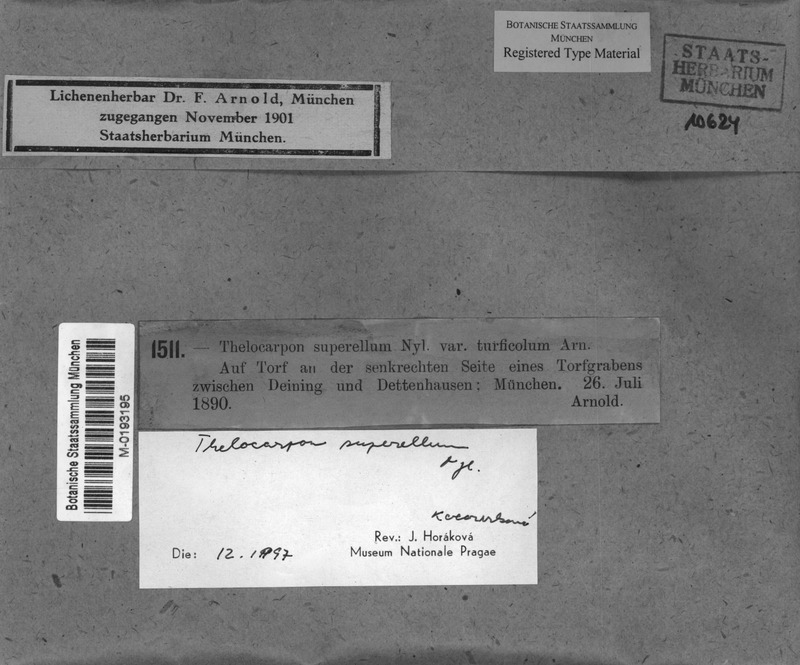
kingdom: Fungi
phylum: Ascomycota
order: Thelocarpales
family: Thelocarpaceae
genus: Thelocarpon
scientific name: Thelocarpon superellum
